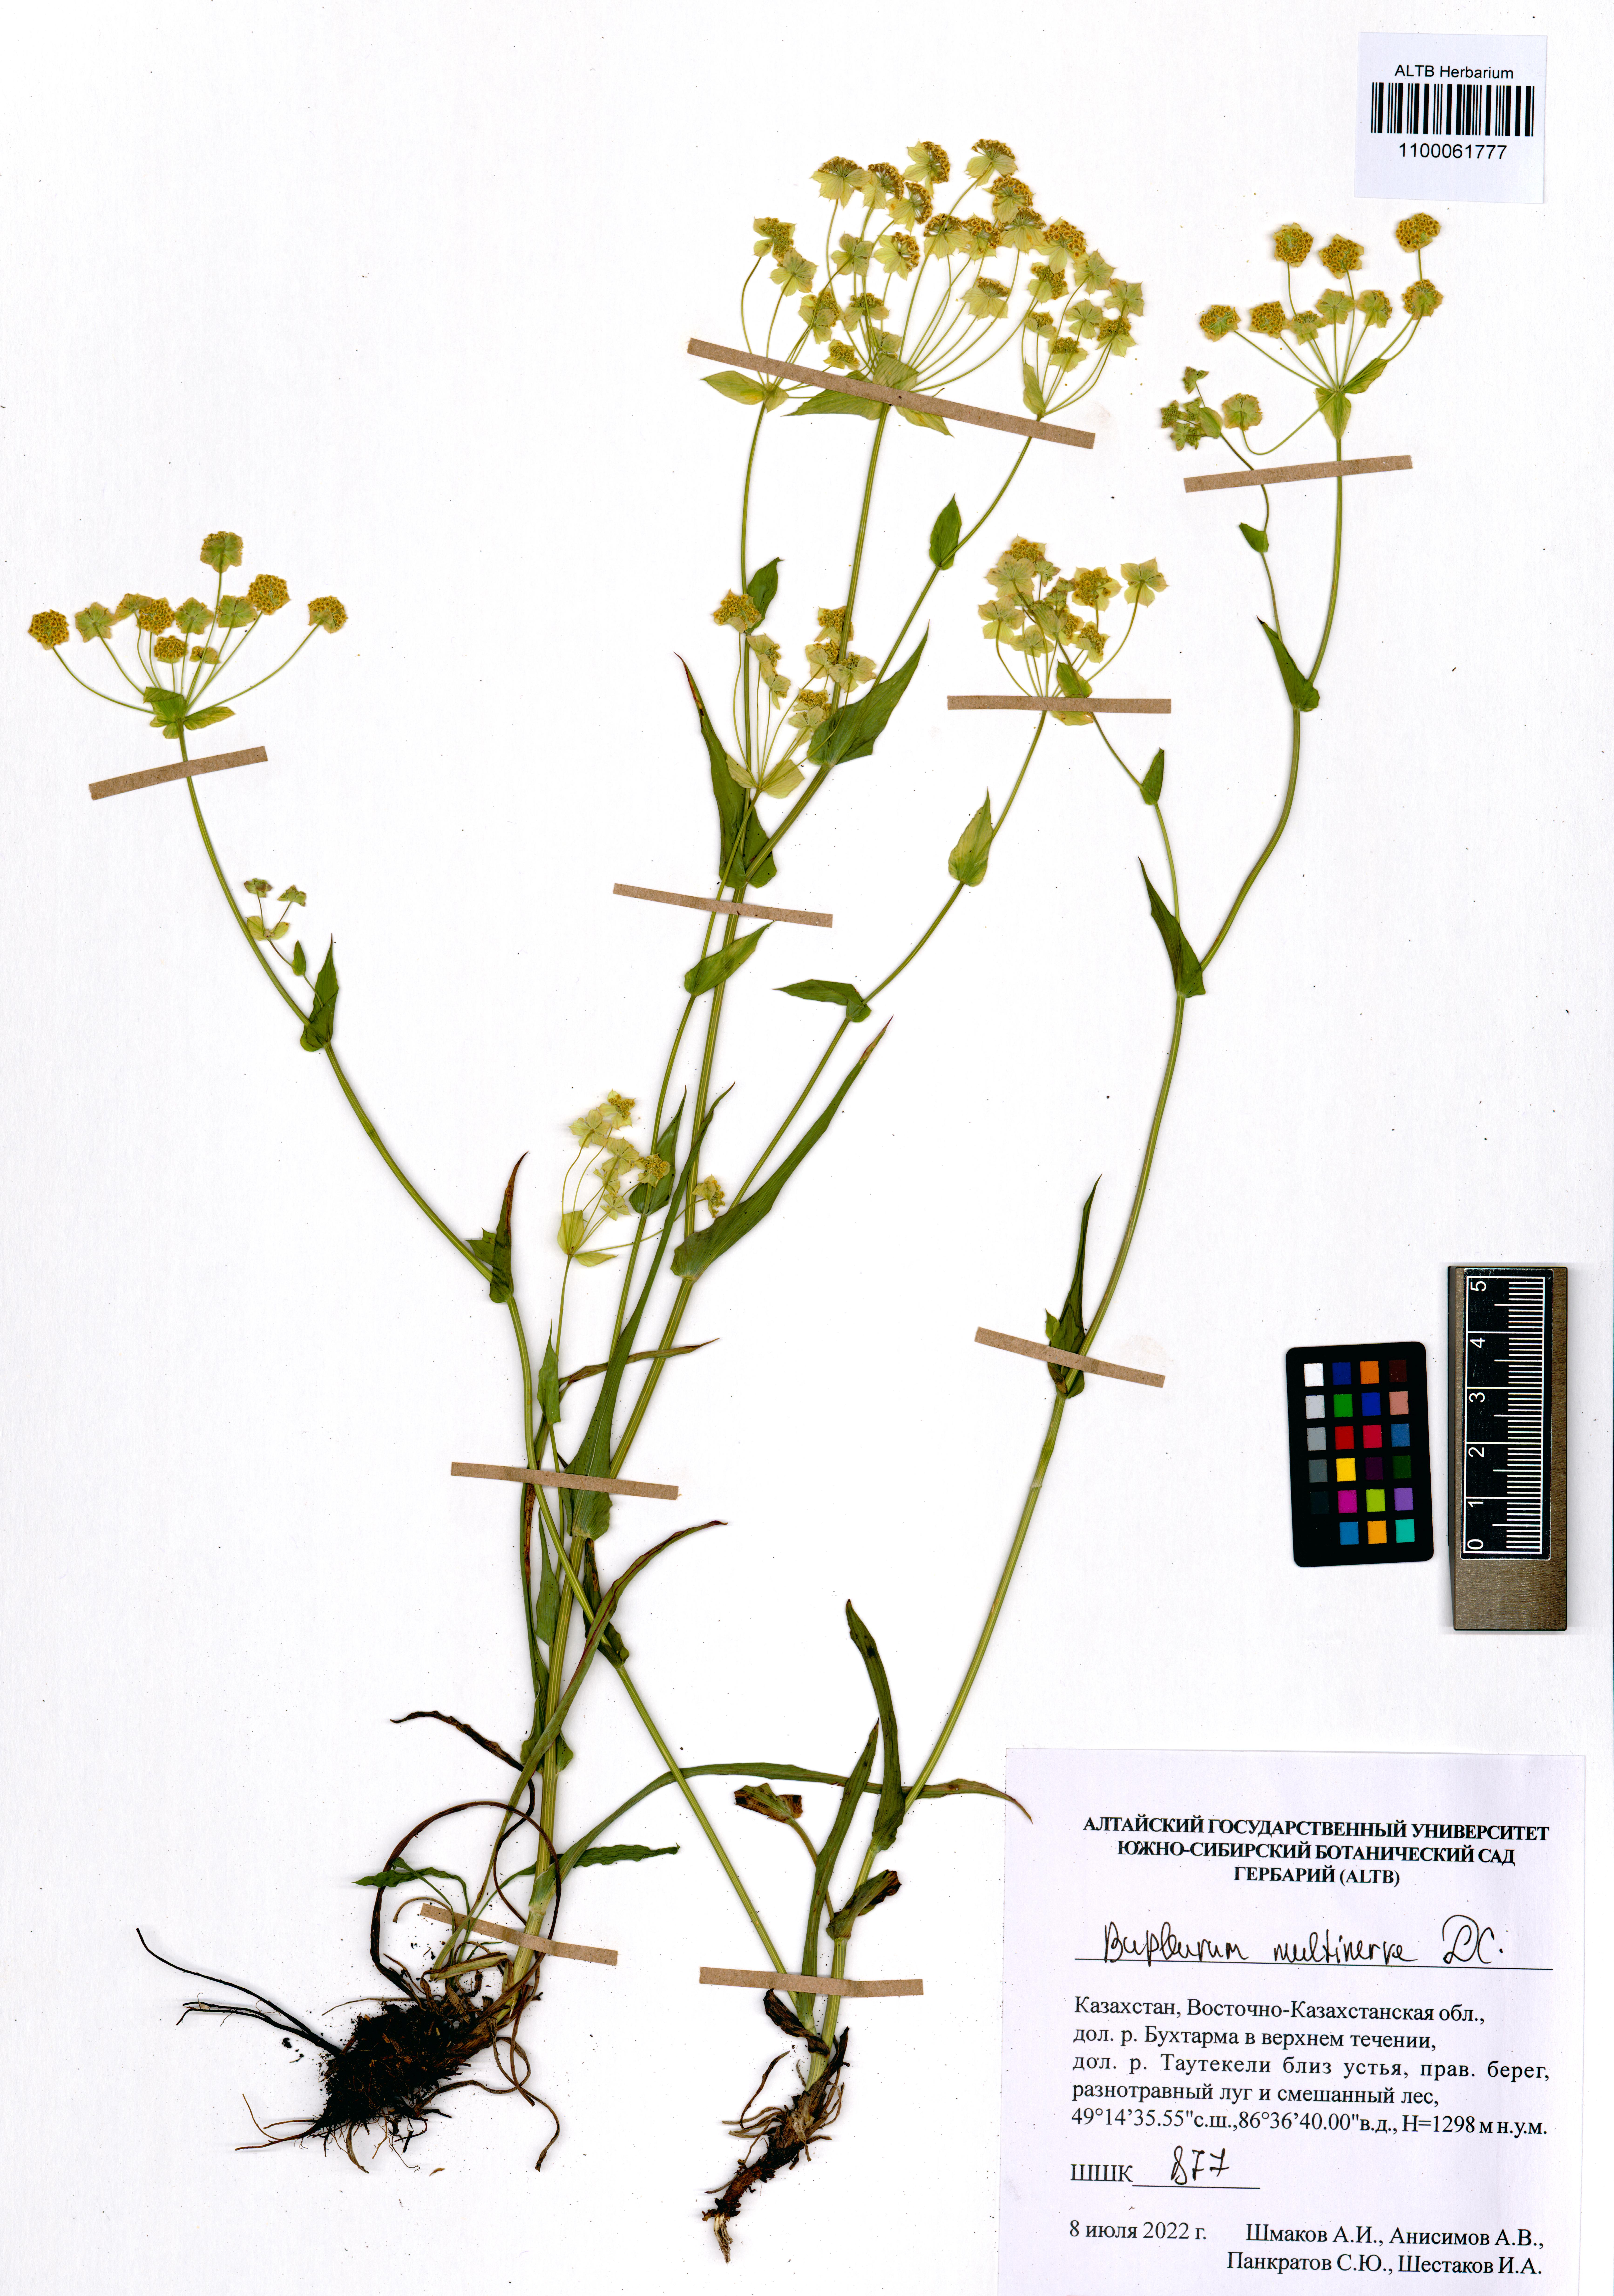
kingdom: Plantae
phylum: Tracheophyta
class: Magnoliopsida
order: Apiales
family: Apiaceae
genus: Bupleurum
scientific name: Bupleurum multinerve
